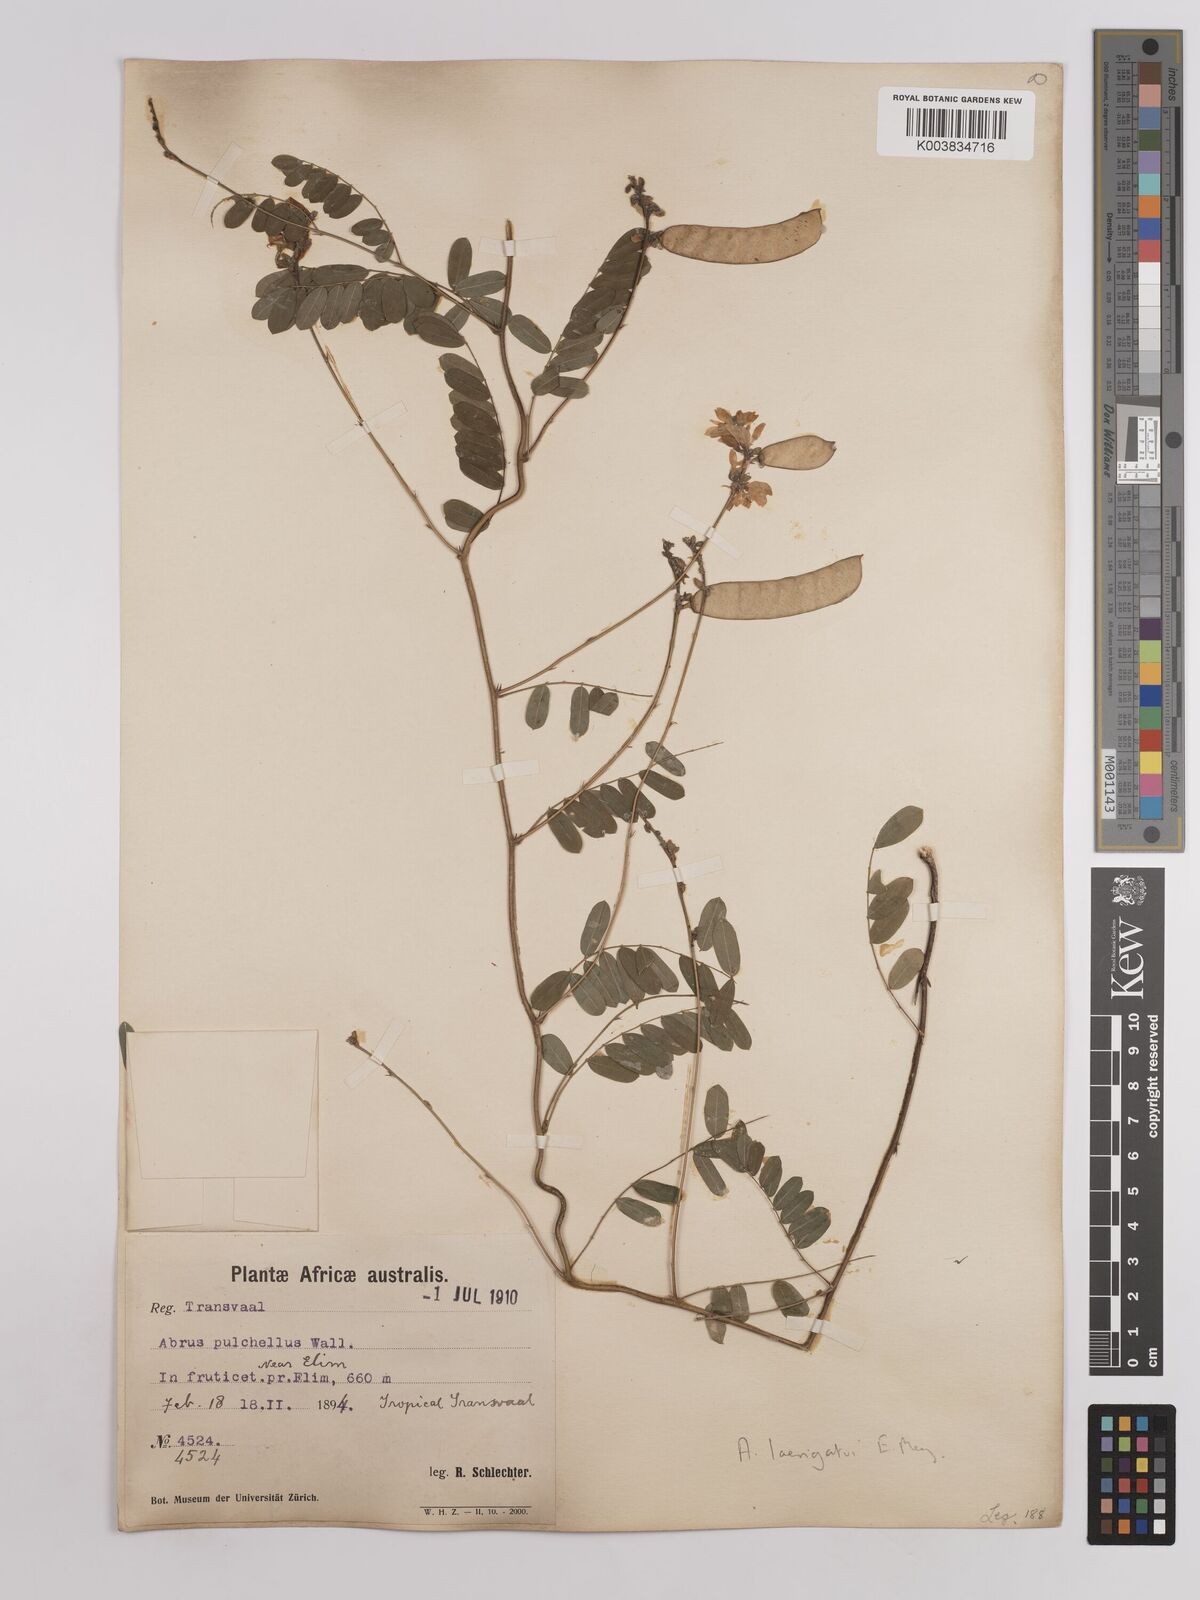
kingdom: Plantae
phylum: Tracheophyta
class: Magnoliopsida
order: Fabales
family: Fabaceae
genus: Abrus
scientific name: Abrus laevigatus
